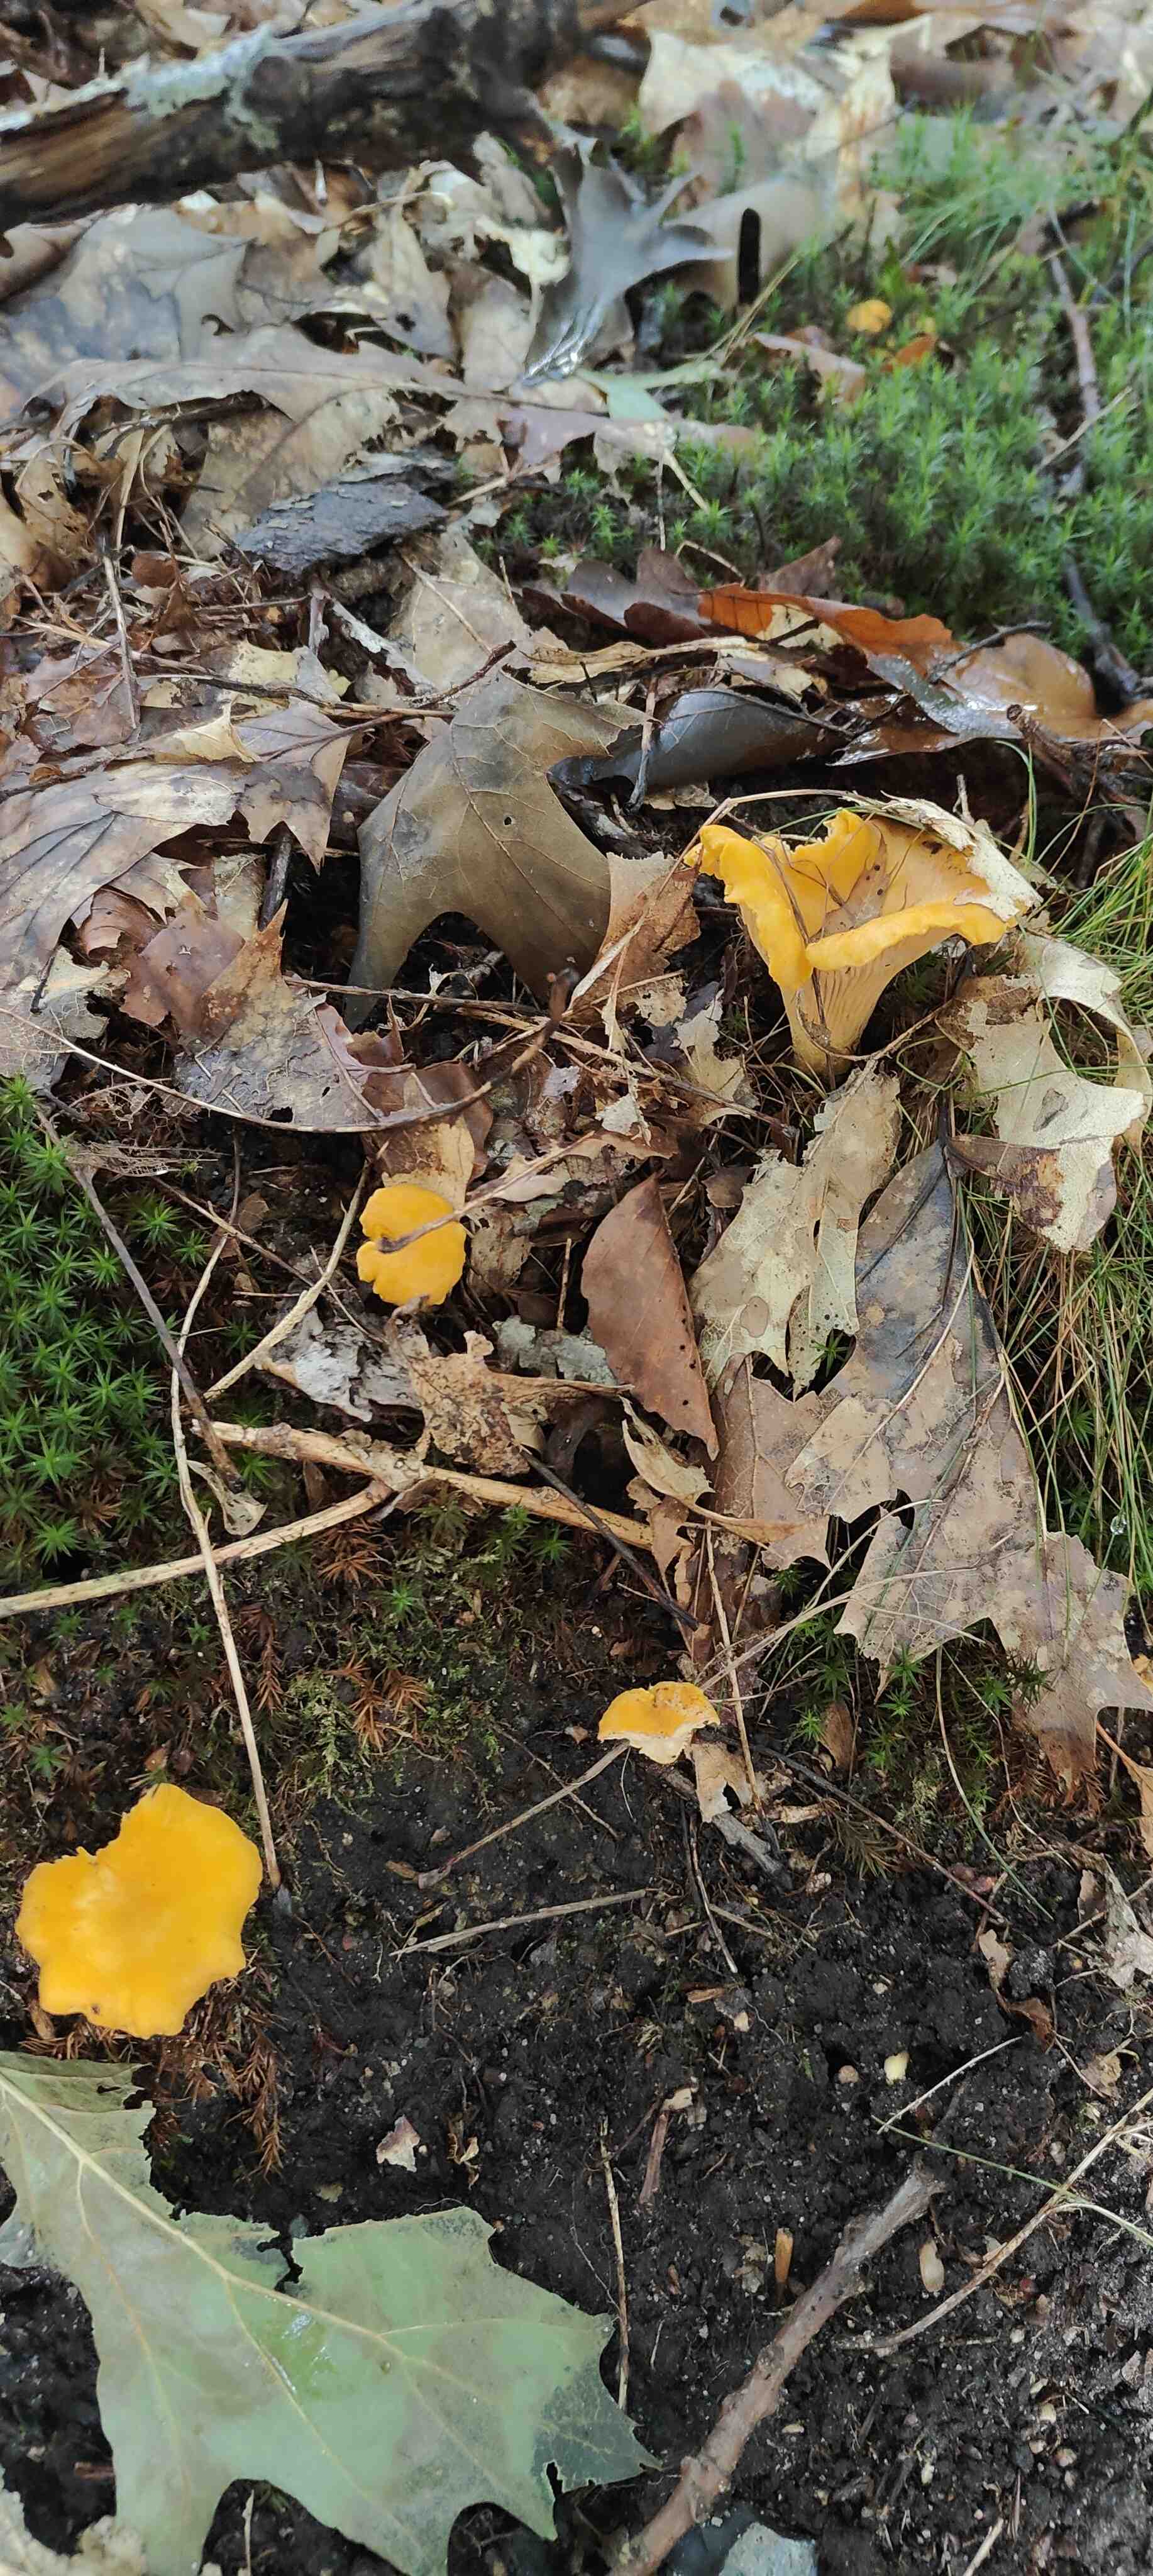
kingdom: Fungi
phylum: Basidiomycota
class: Agaricomycetes
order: Cantharellales
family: Hydnaceae
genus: Cantharellus
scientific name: Cantharellus cibarius
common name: almindelig kantarel
